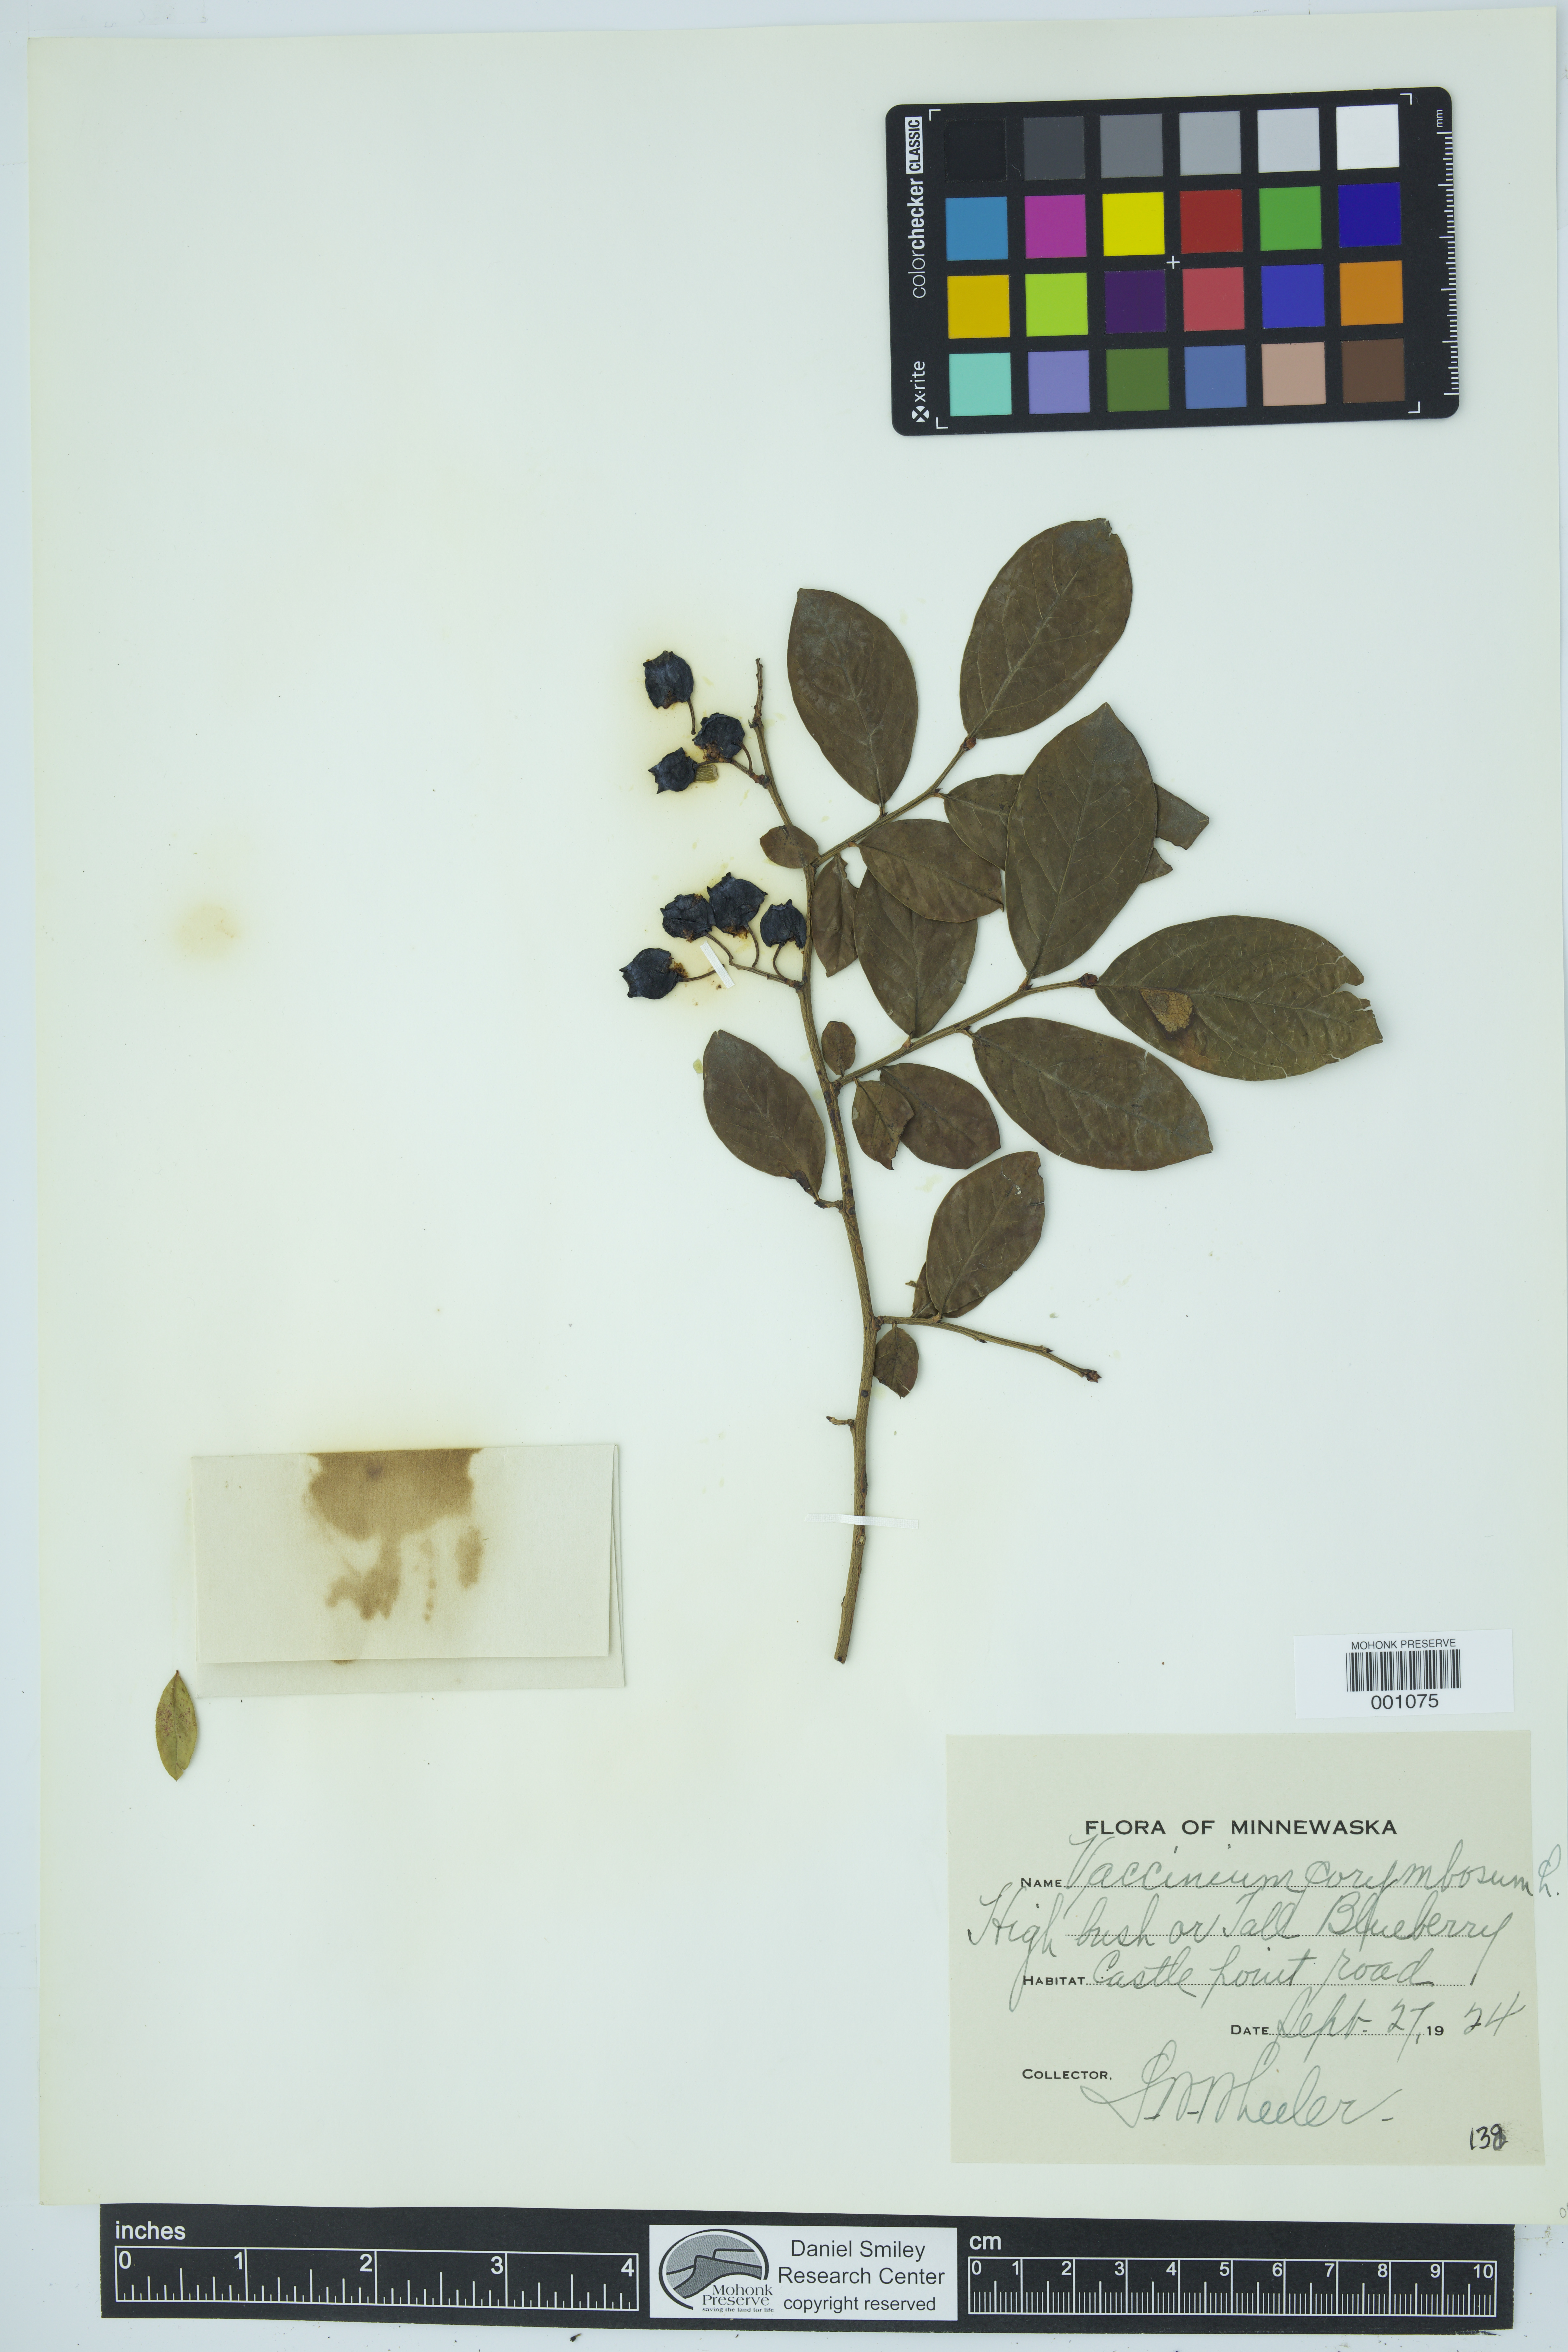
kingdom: Plantae
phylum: Tracheophyta
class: Magnoliopsida
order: Ericales
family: Ericaceae
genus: Vaccinium
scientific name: Vaccinium corymbosum
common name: Blueberry
